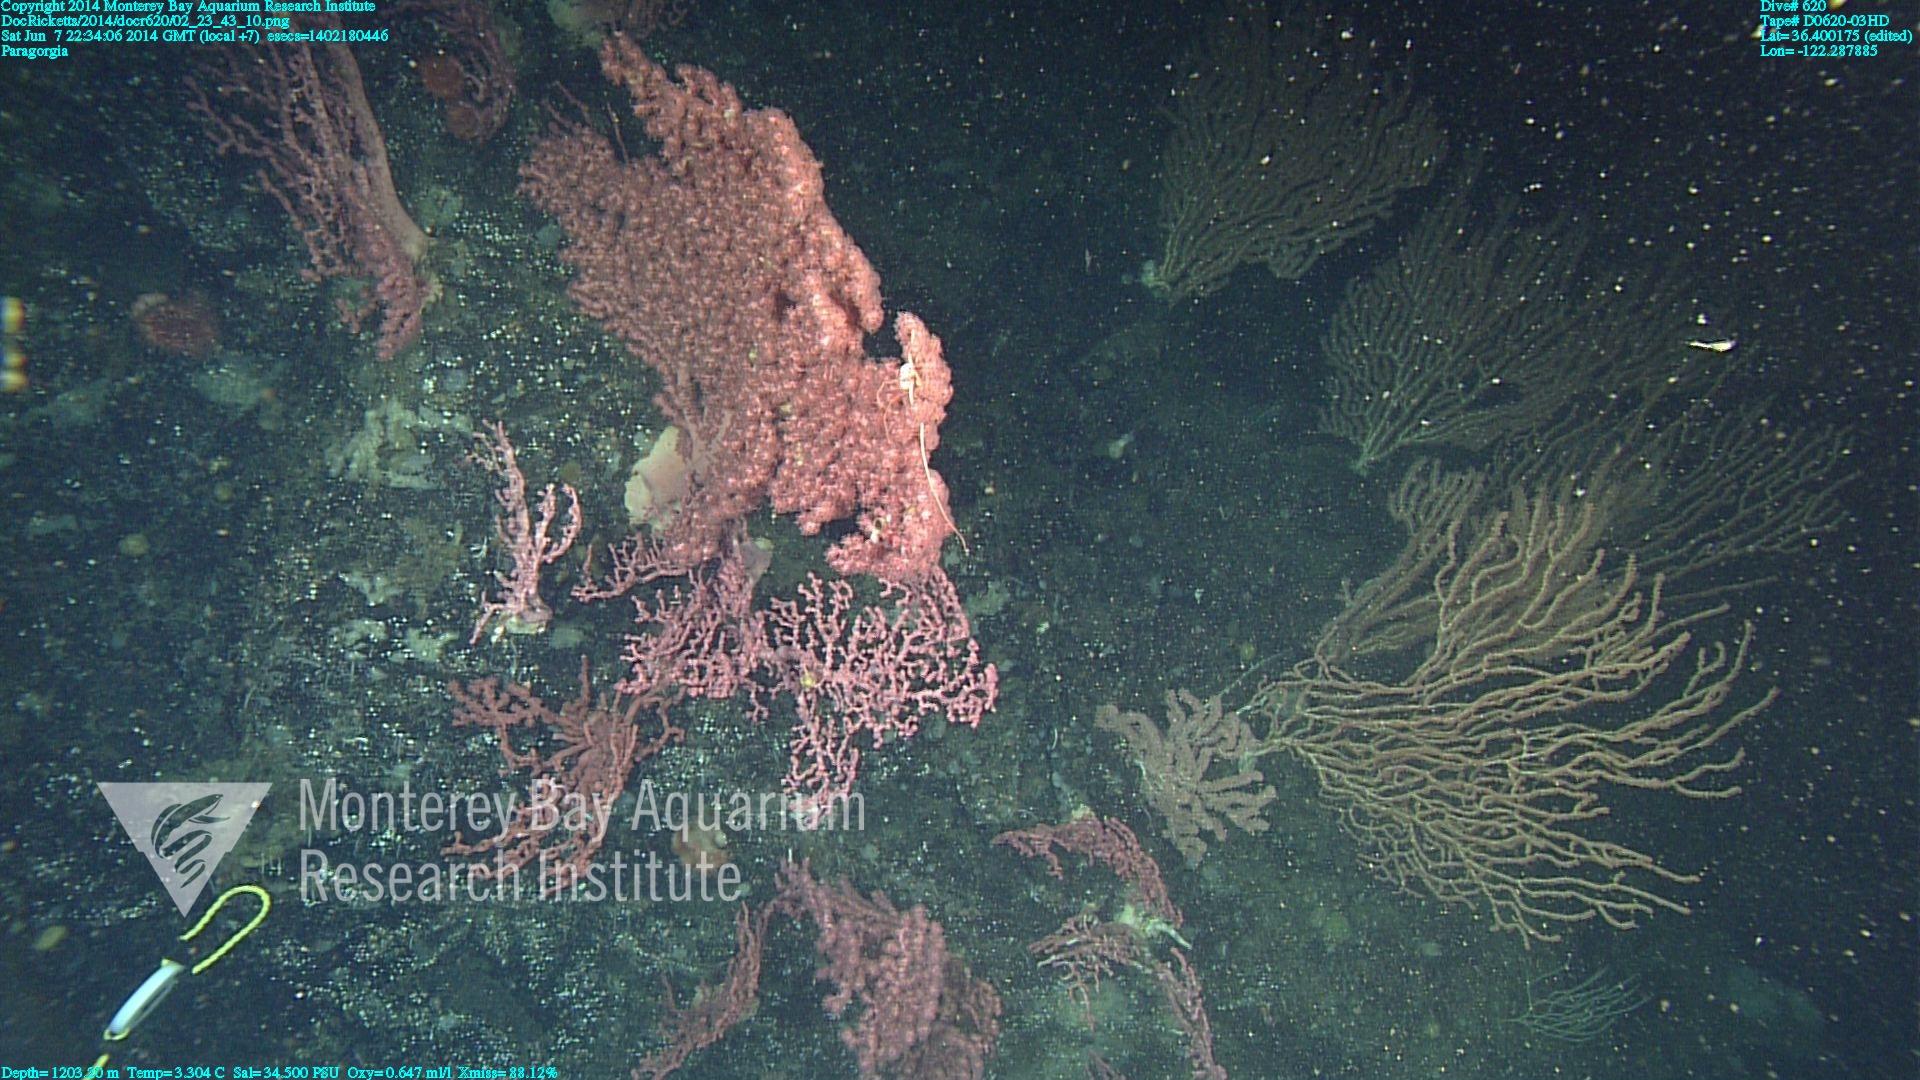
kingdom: Animalia
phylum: Cnidaria
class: Anthozoa
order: Scleralcyonacea
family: Coralliidae
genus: Paragorgia
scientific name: Paragorgia arborea
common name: Bubble gum coral
